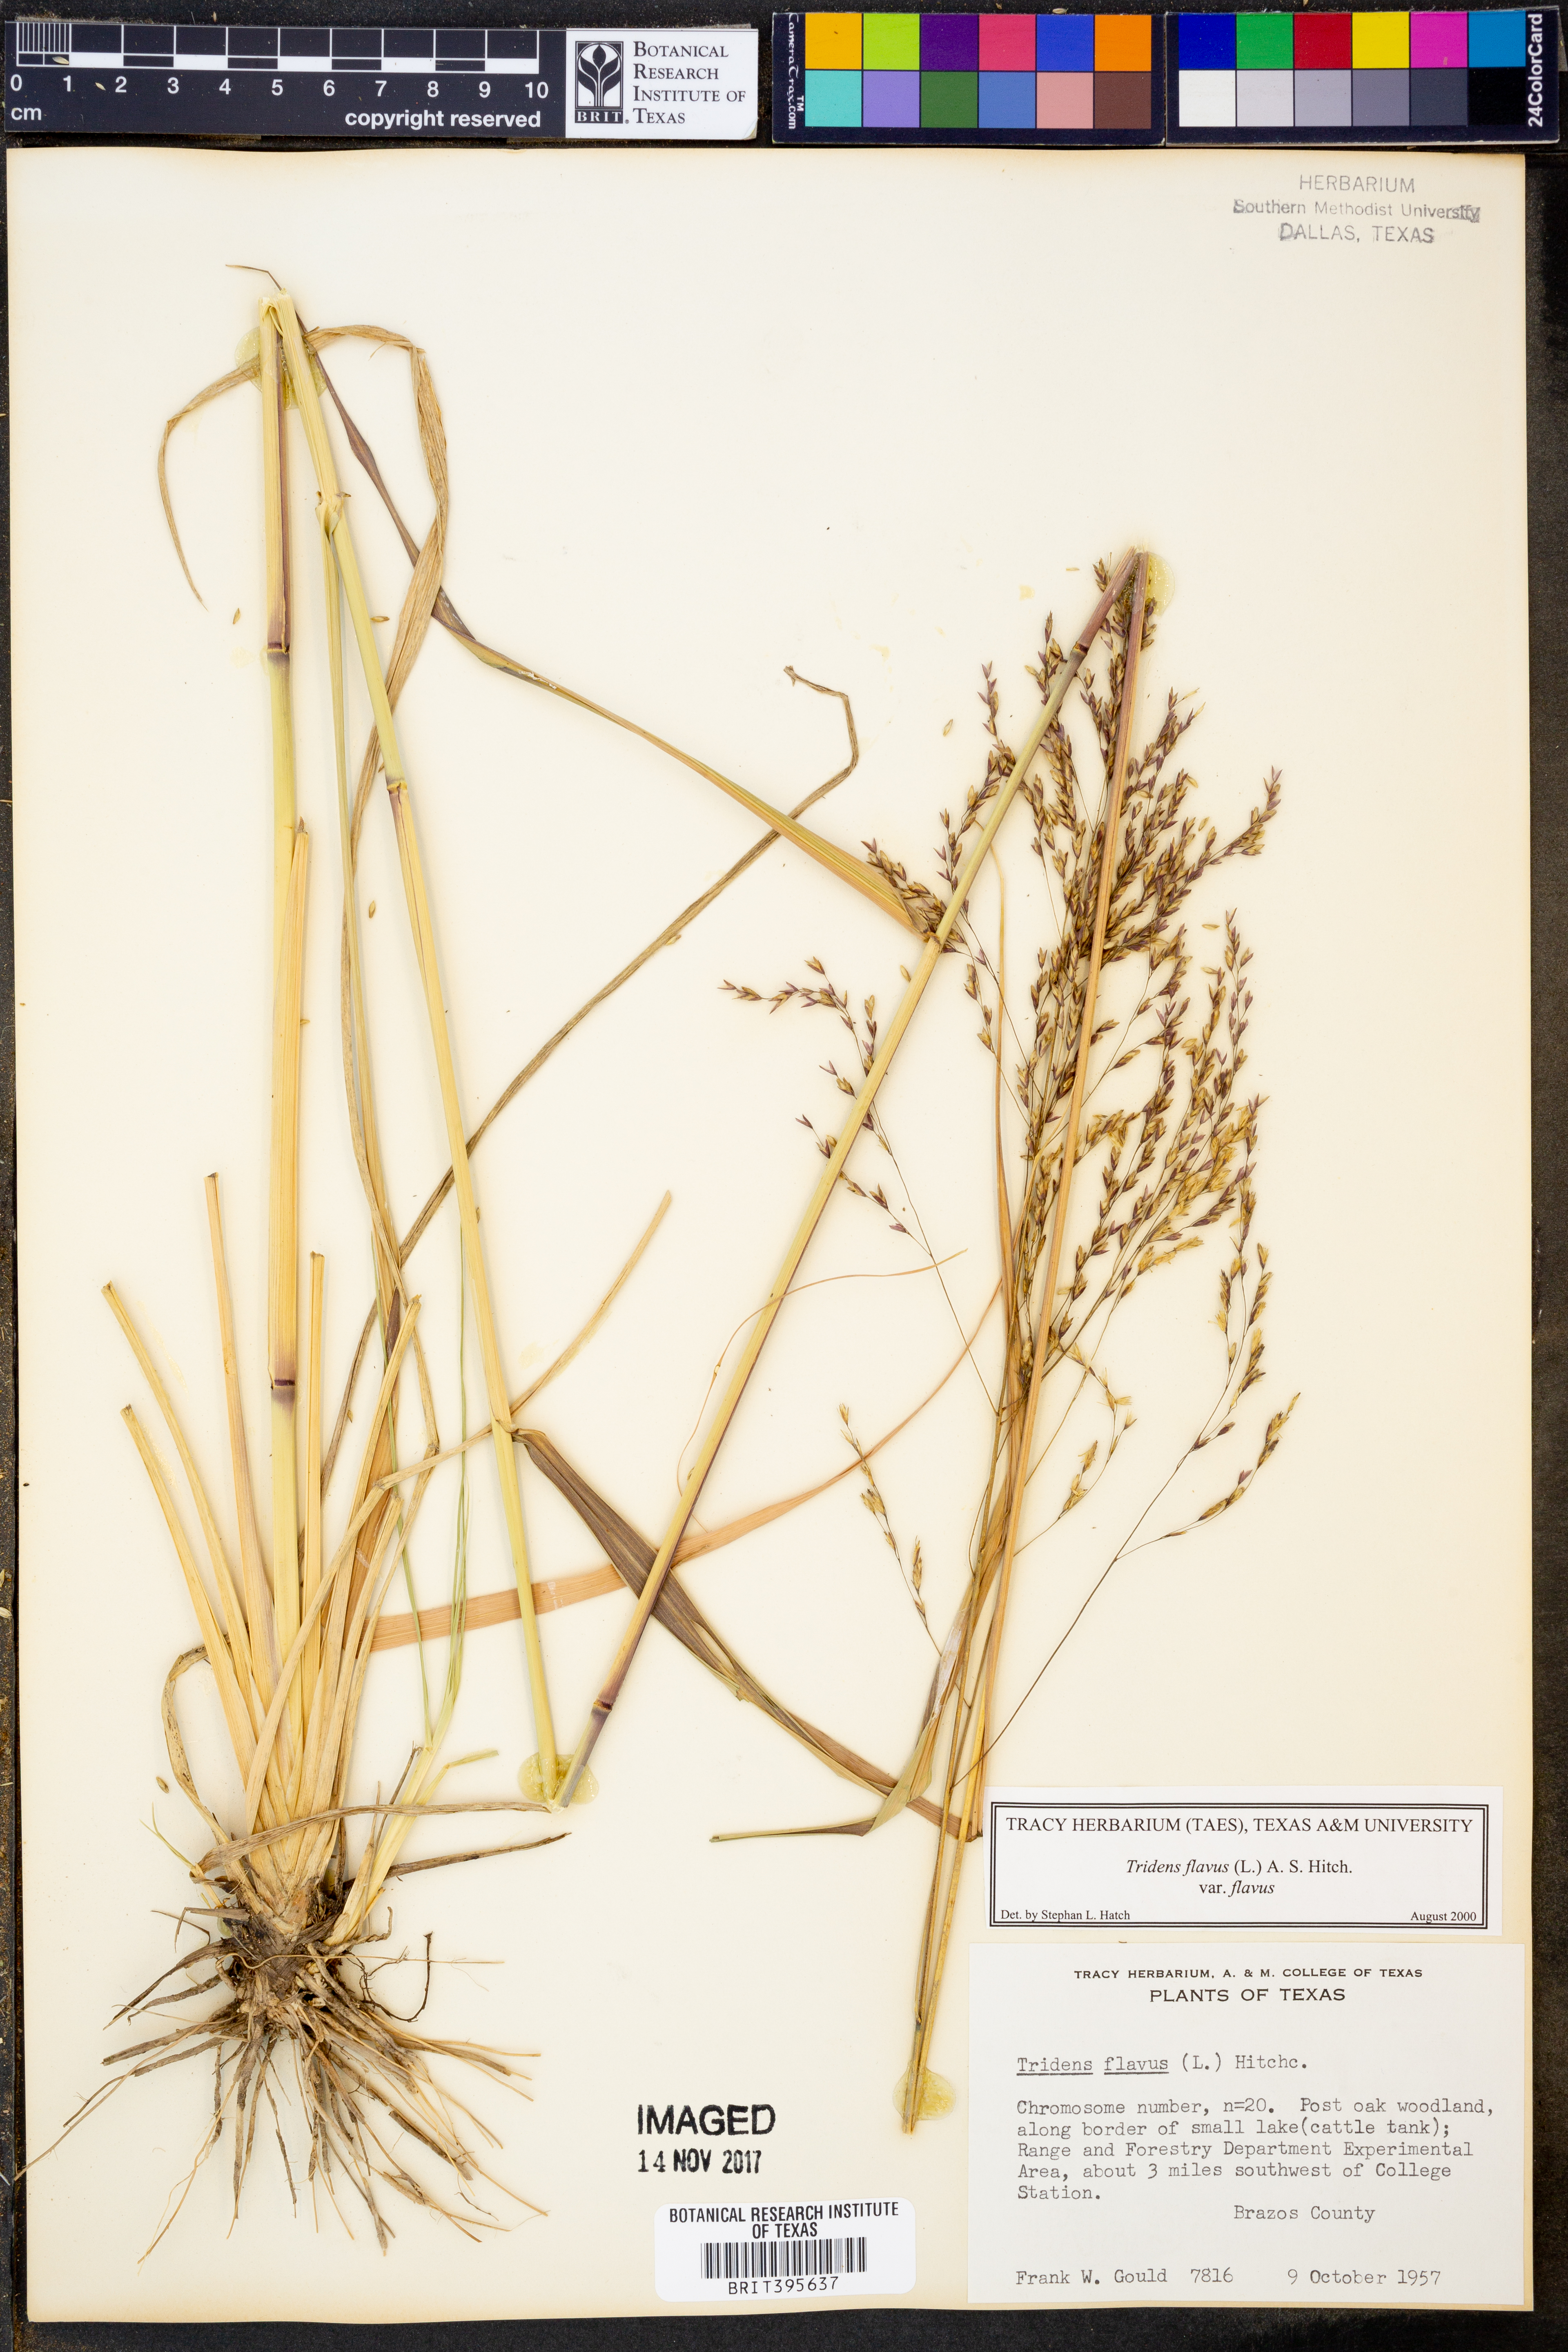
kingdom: Plantae
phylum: Tracheophyta
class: Liliopsida
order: Poales
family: Poaceae
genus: Tridens
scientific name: Tridens flavus
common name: Purpletop
